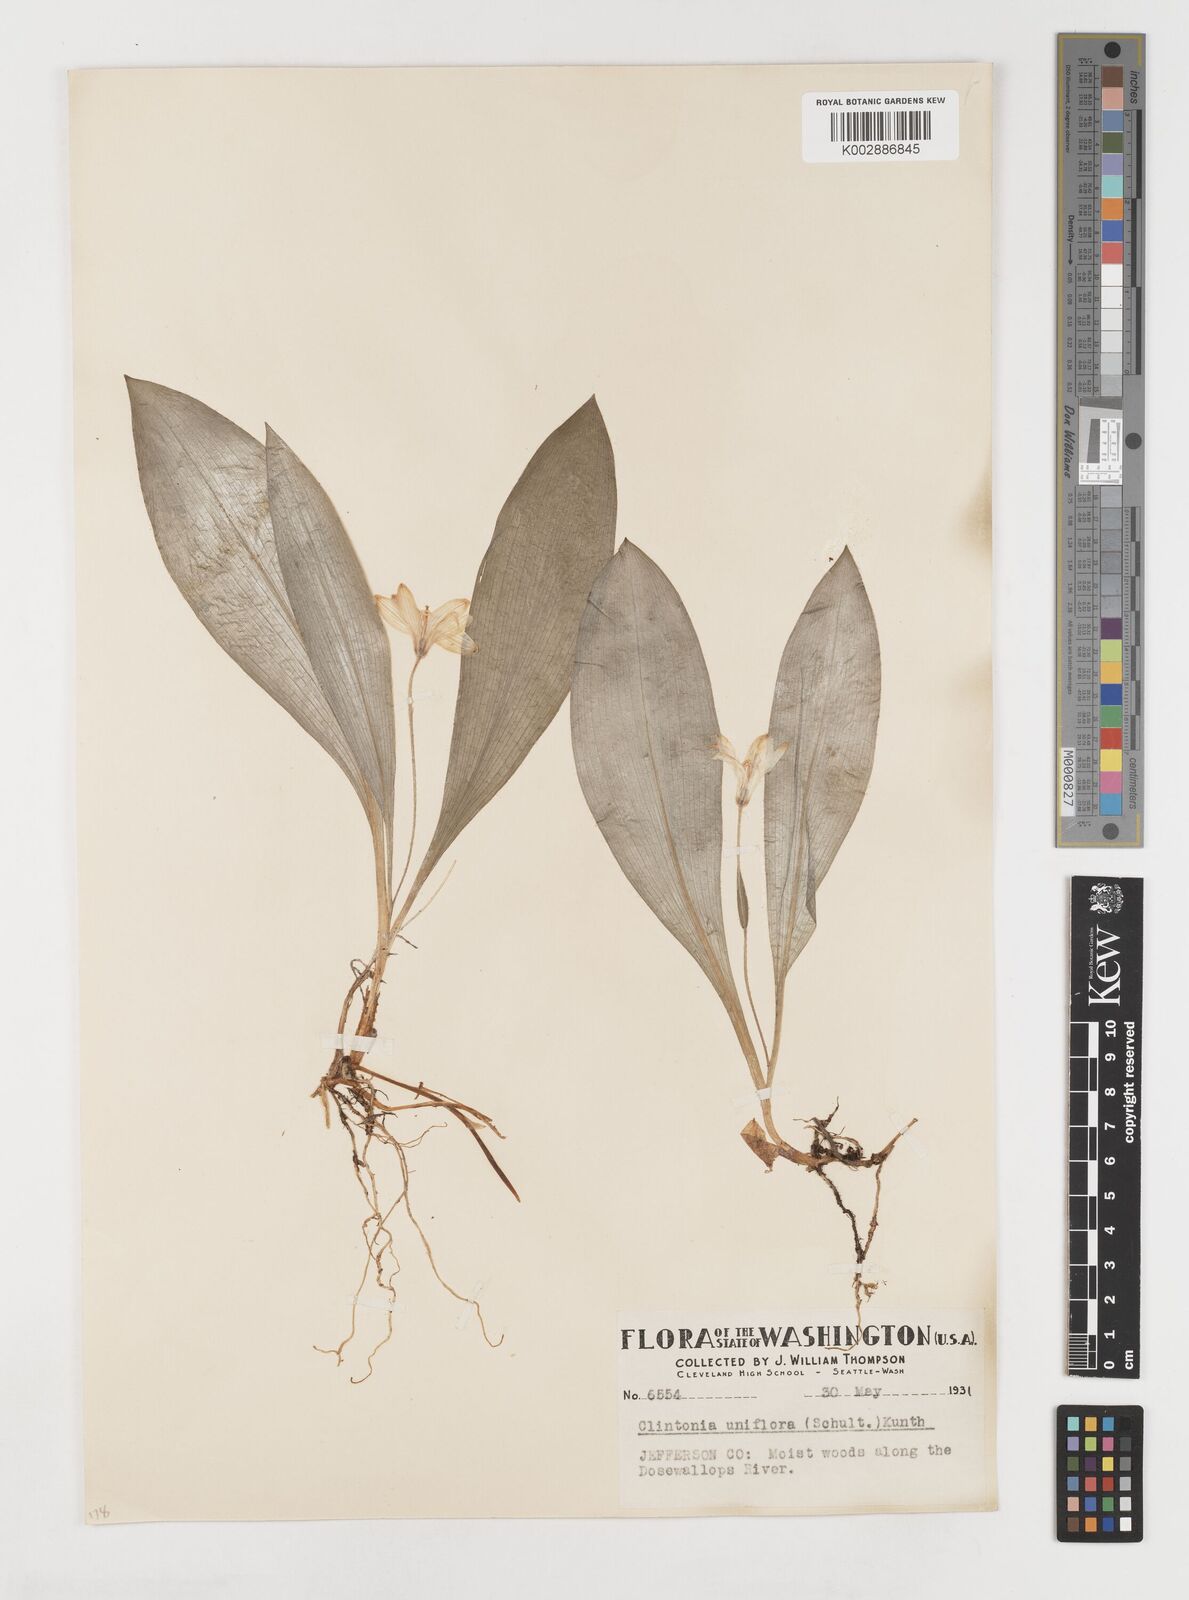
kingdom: Plantae
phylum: Tracheophyta
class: Liliopsida
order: Liliales
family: Liliaceae
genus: Clintonia
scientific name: Clintonia uniflora
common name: Queen's cup
